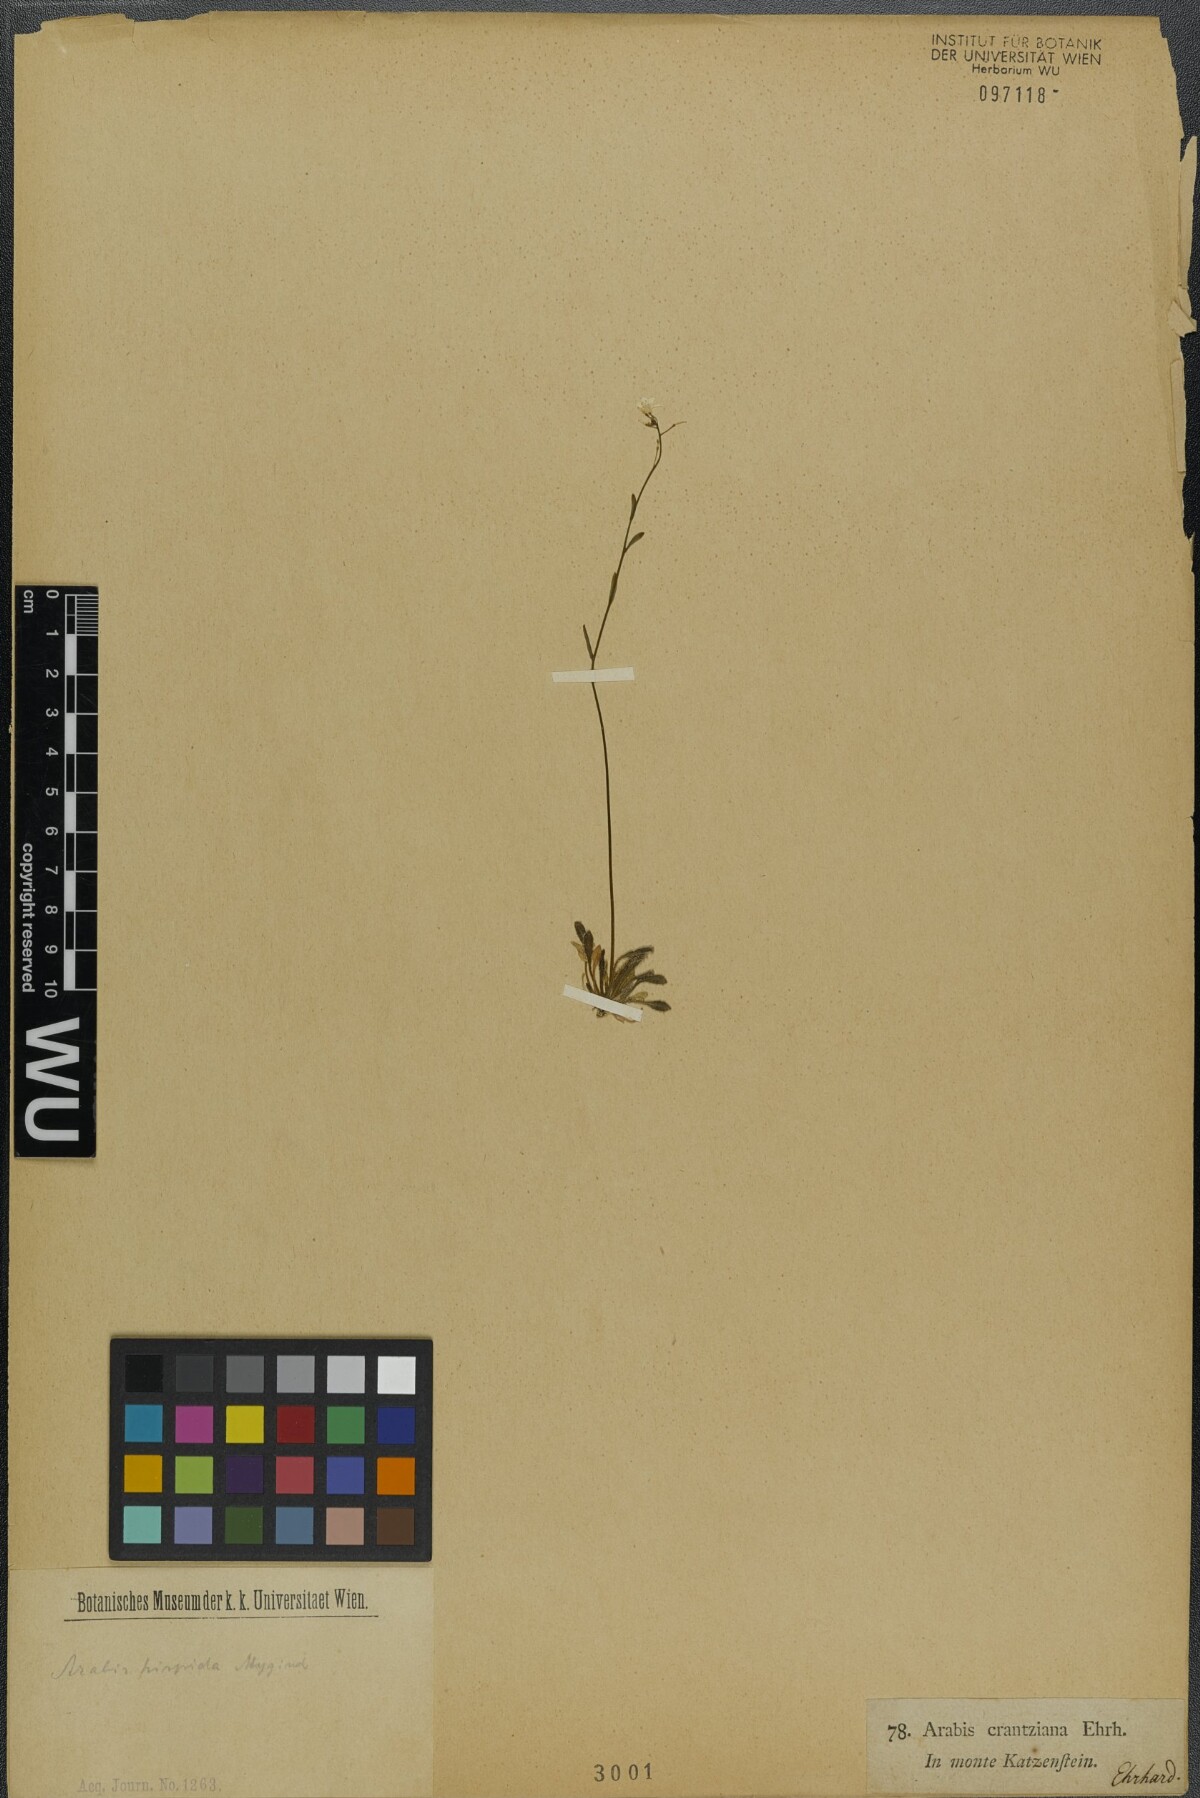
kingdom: Plantae
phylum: Tracheophyta
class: Magnoliopsida
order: Brassicales
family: Brassicaceae
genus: Arabidopsis
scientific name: Arabidopsis lyrata
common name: Lyrate rockcress
